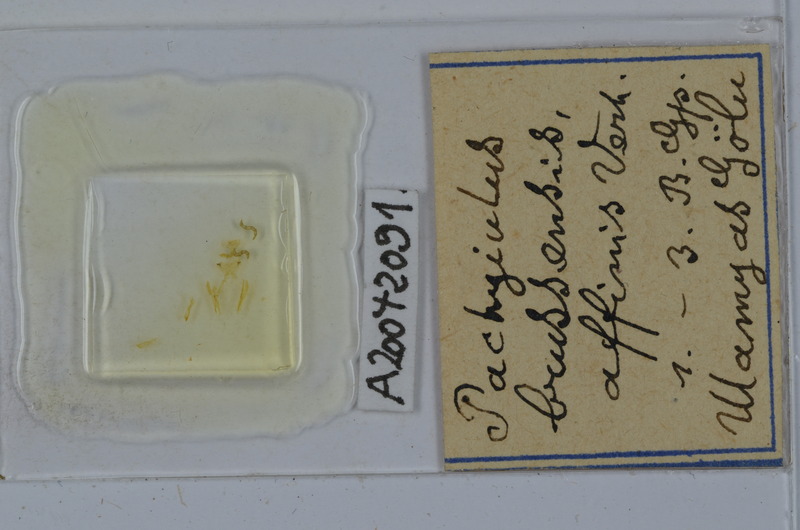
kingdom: Animalia
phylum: Arthropoda
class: Diplopoda
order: Julida
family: Julidae
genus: Pachyiulus
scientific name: Pachyiulus brussensis
